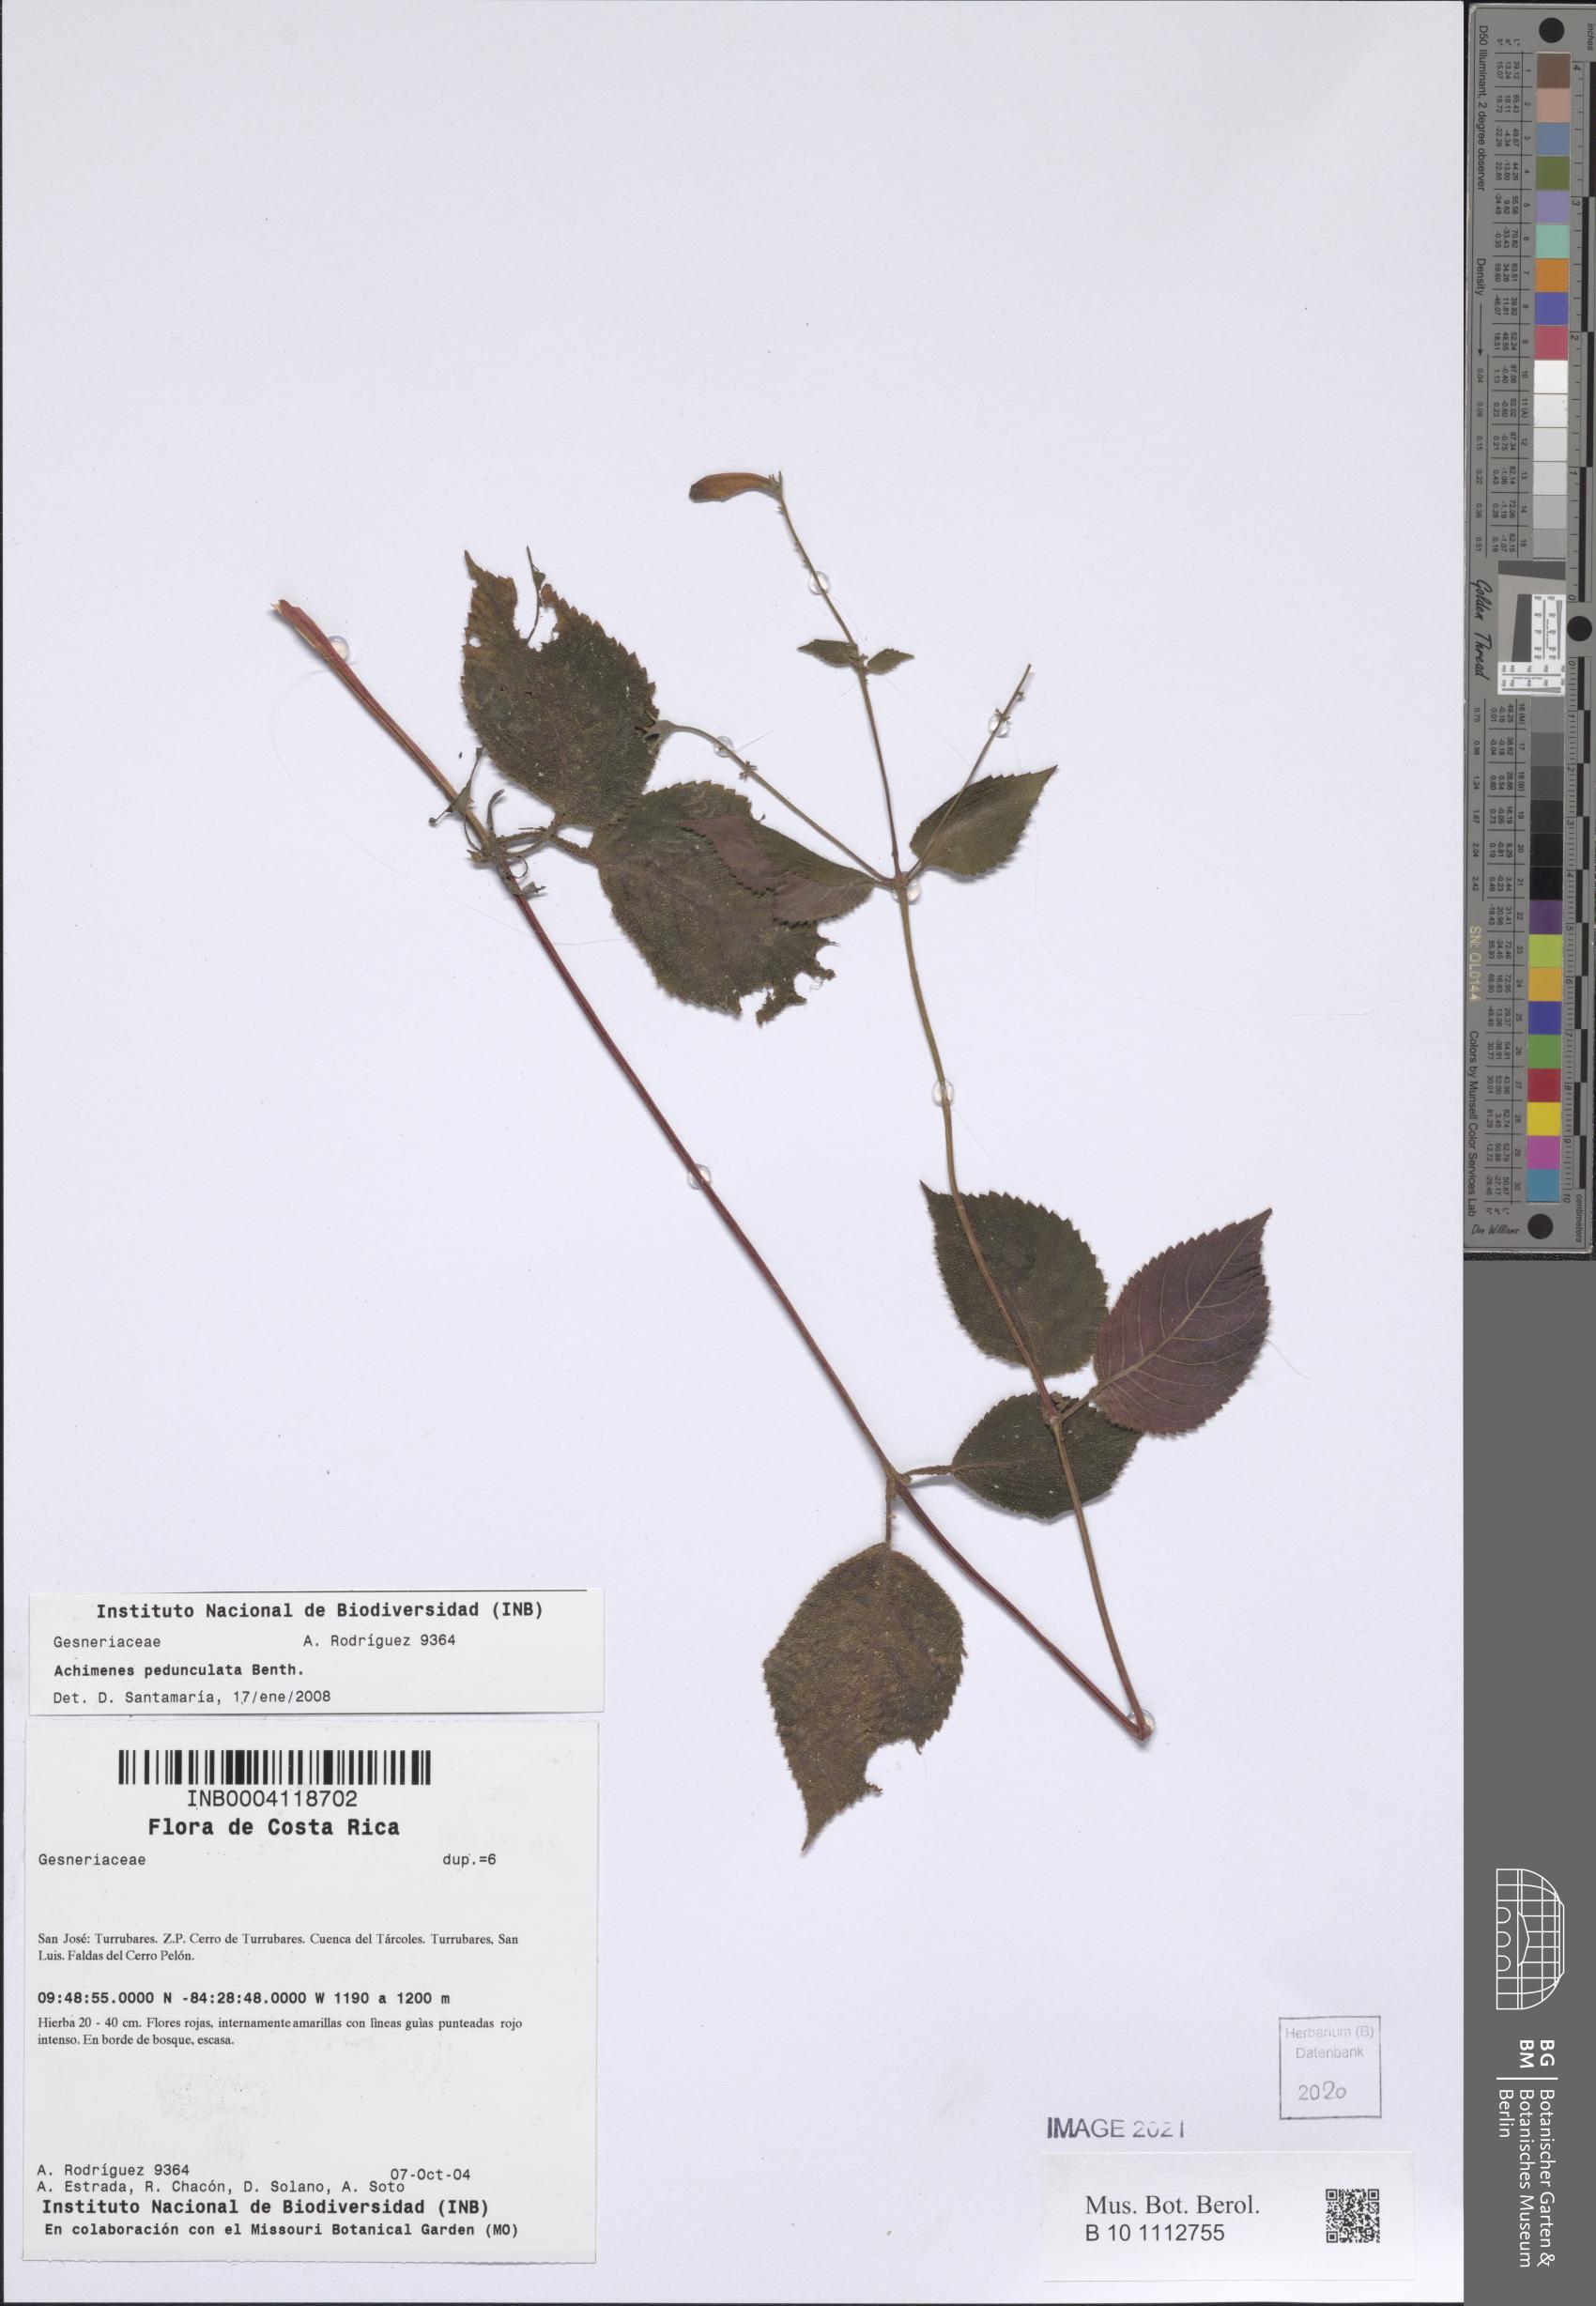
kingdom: Plantae
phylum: Tracheophyta
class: Magnoliopsida
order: Lamiales
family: Gesneriaceae
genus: Achimenes
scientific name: Achimenes pedunculata
